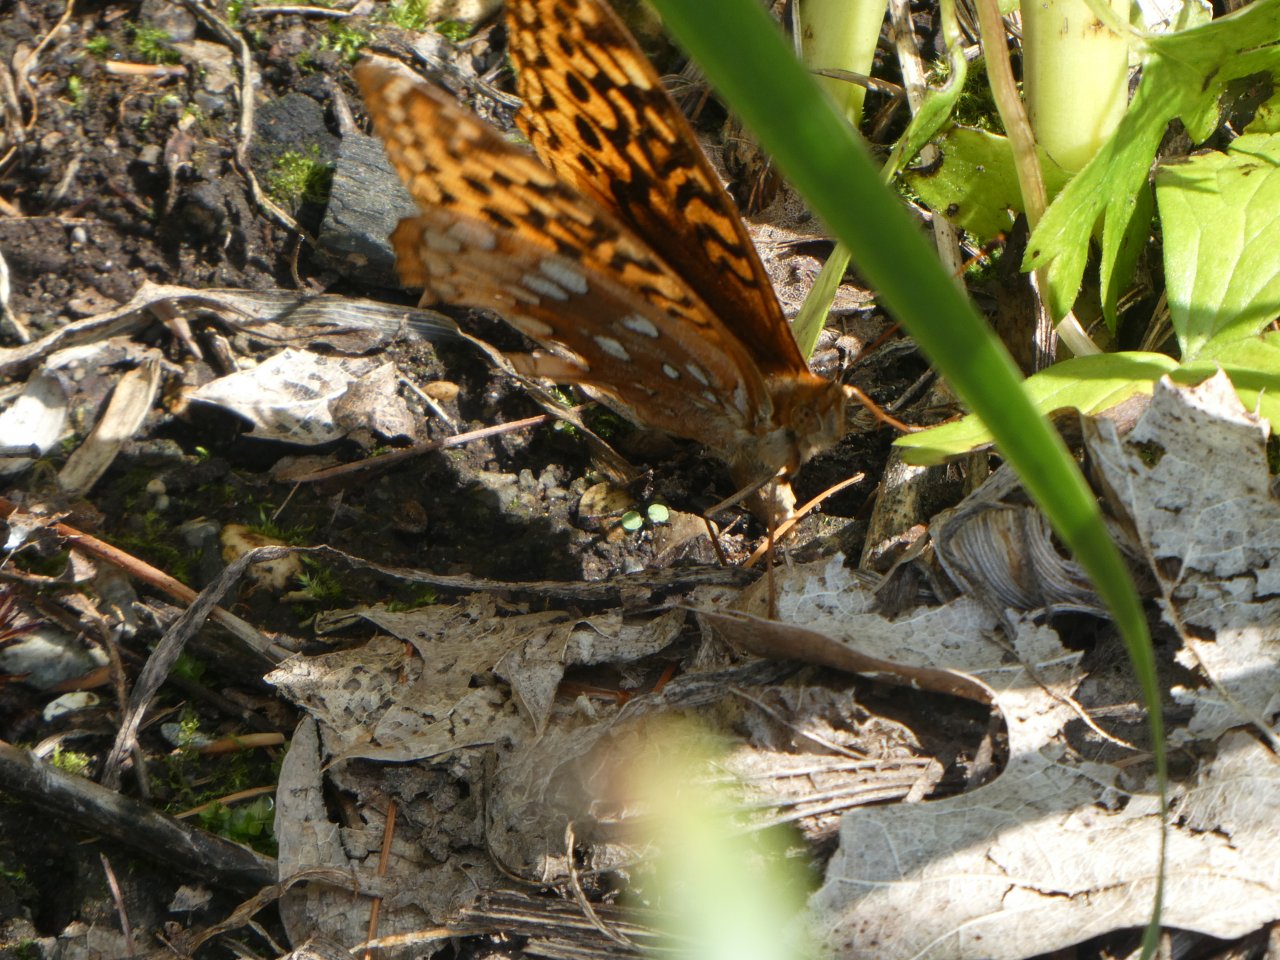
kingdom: Animalia
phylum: Arthropoda
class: Insecta
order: Lepidoptera
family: Nymphalidae
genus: Speyeria
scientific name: Speyeria cybele
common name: Great Spangled Fritillary
